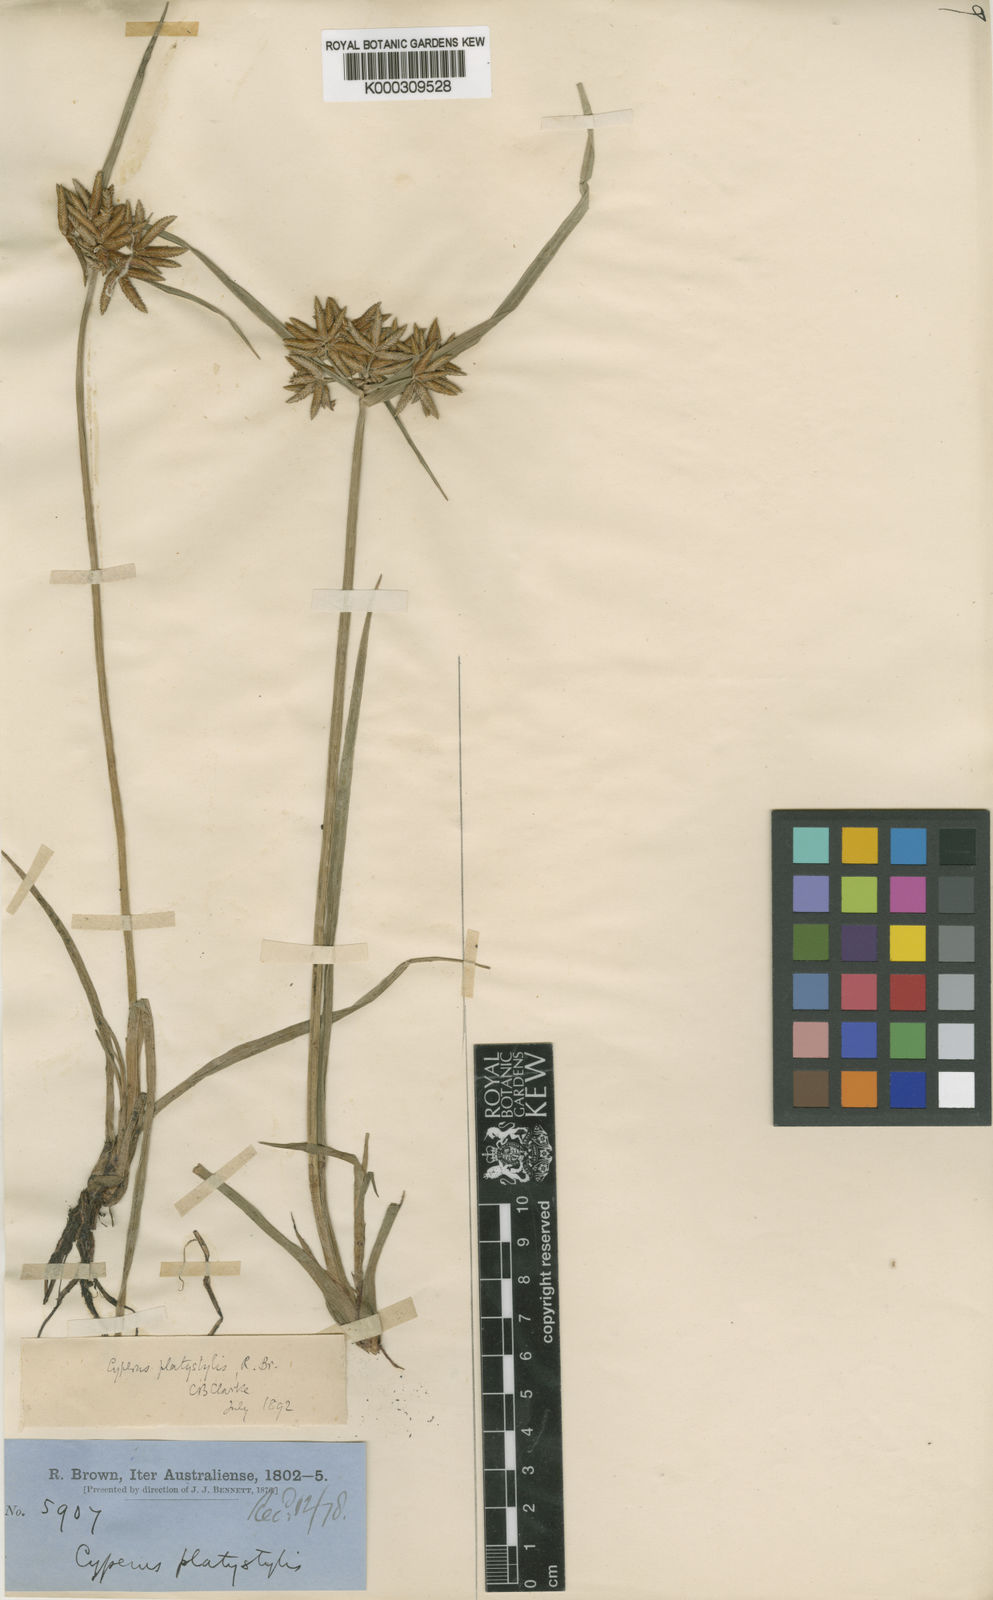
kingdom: Plantae
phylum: Tracheophyta
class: Liliopsida
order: Poales
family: Cyperaceae
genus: Cyperus
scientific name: Cyperus platystylis
